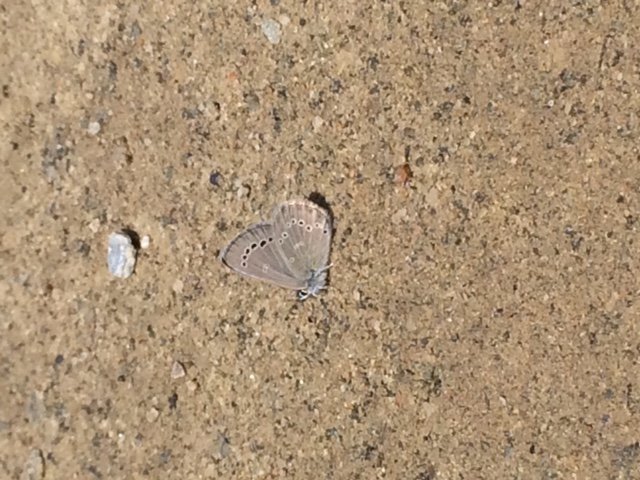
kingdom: Animalia
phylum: Arthropoda
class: Insecta
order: Lepidoptera
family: Lycaenidae
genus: Glaucopsyche
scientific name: Glaucopsyche lygdamus
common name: Silvery Blue
